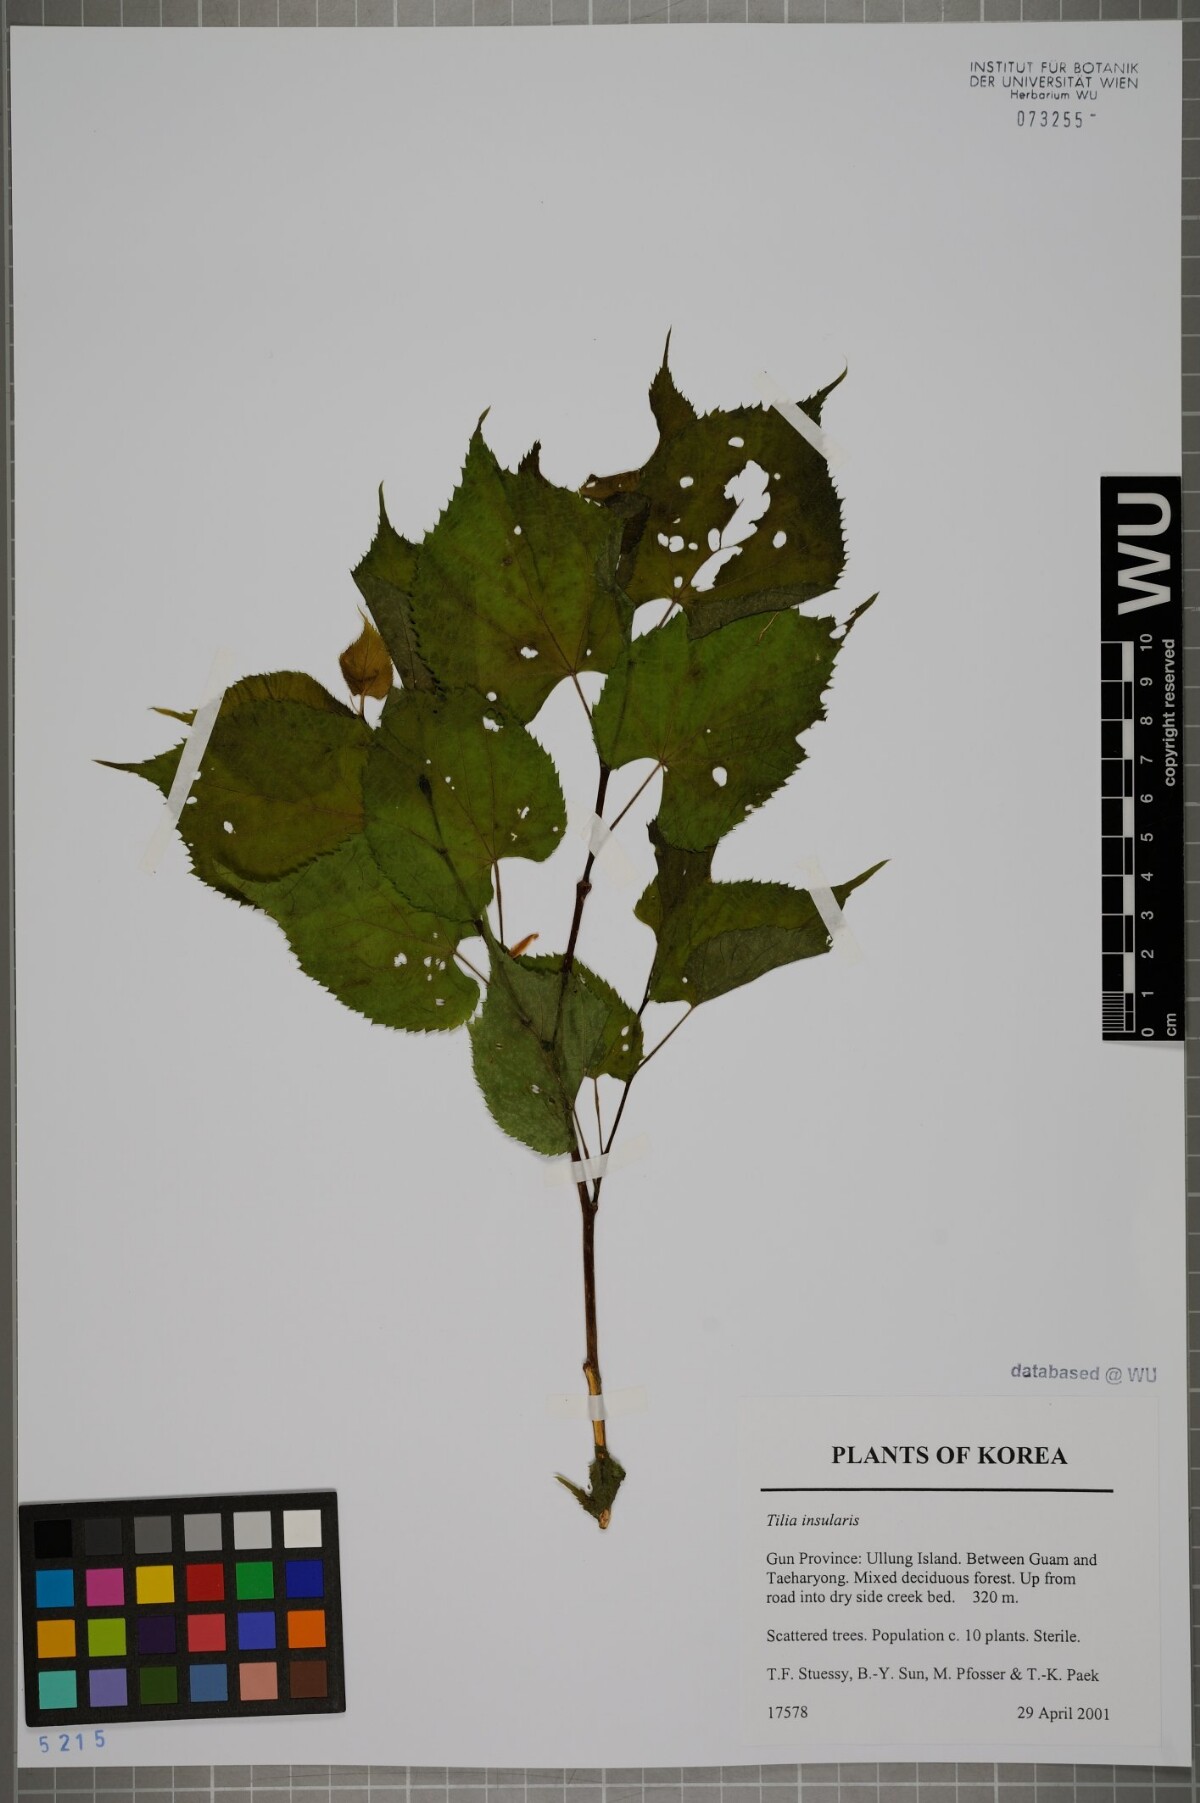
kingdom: Plantae
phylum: Tracheophyta
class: Magnoliopsida
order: Malvales
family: Malvaceae
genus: Tilia
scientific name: Tilia amurensis
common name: Amur lime
